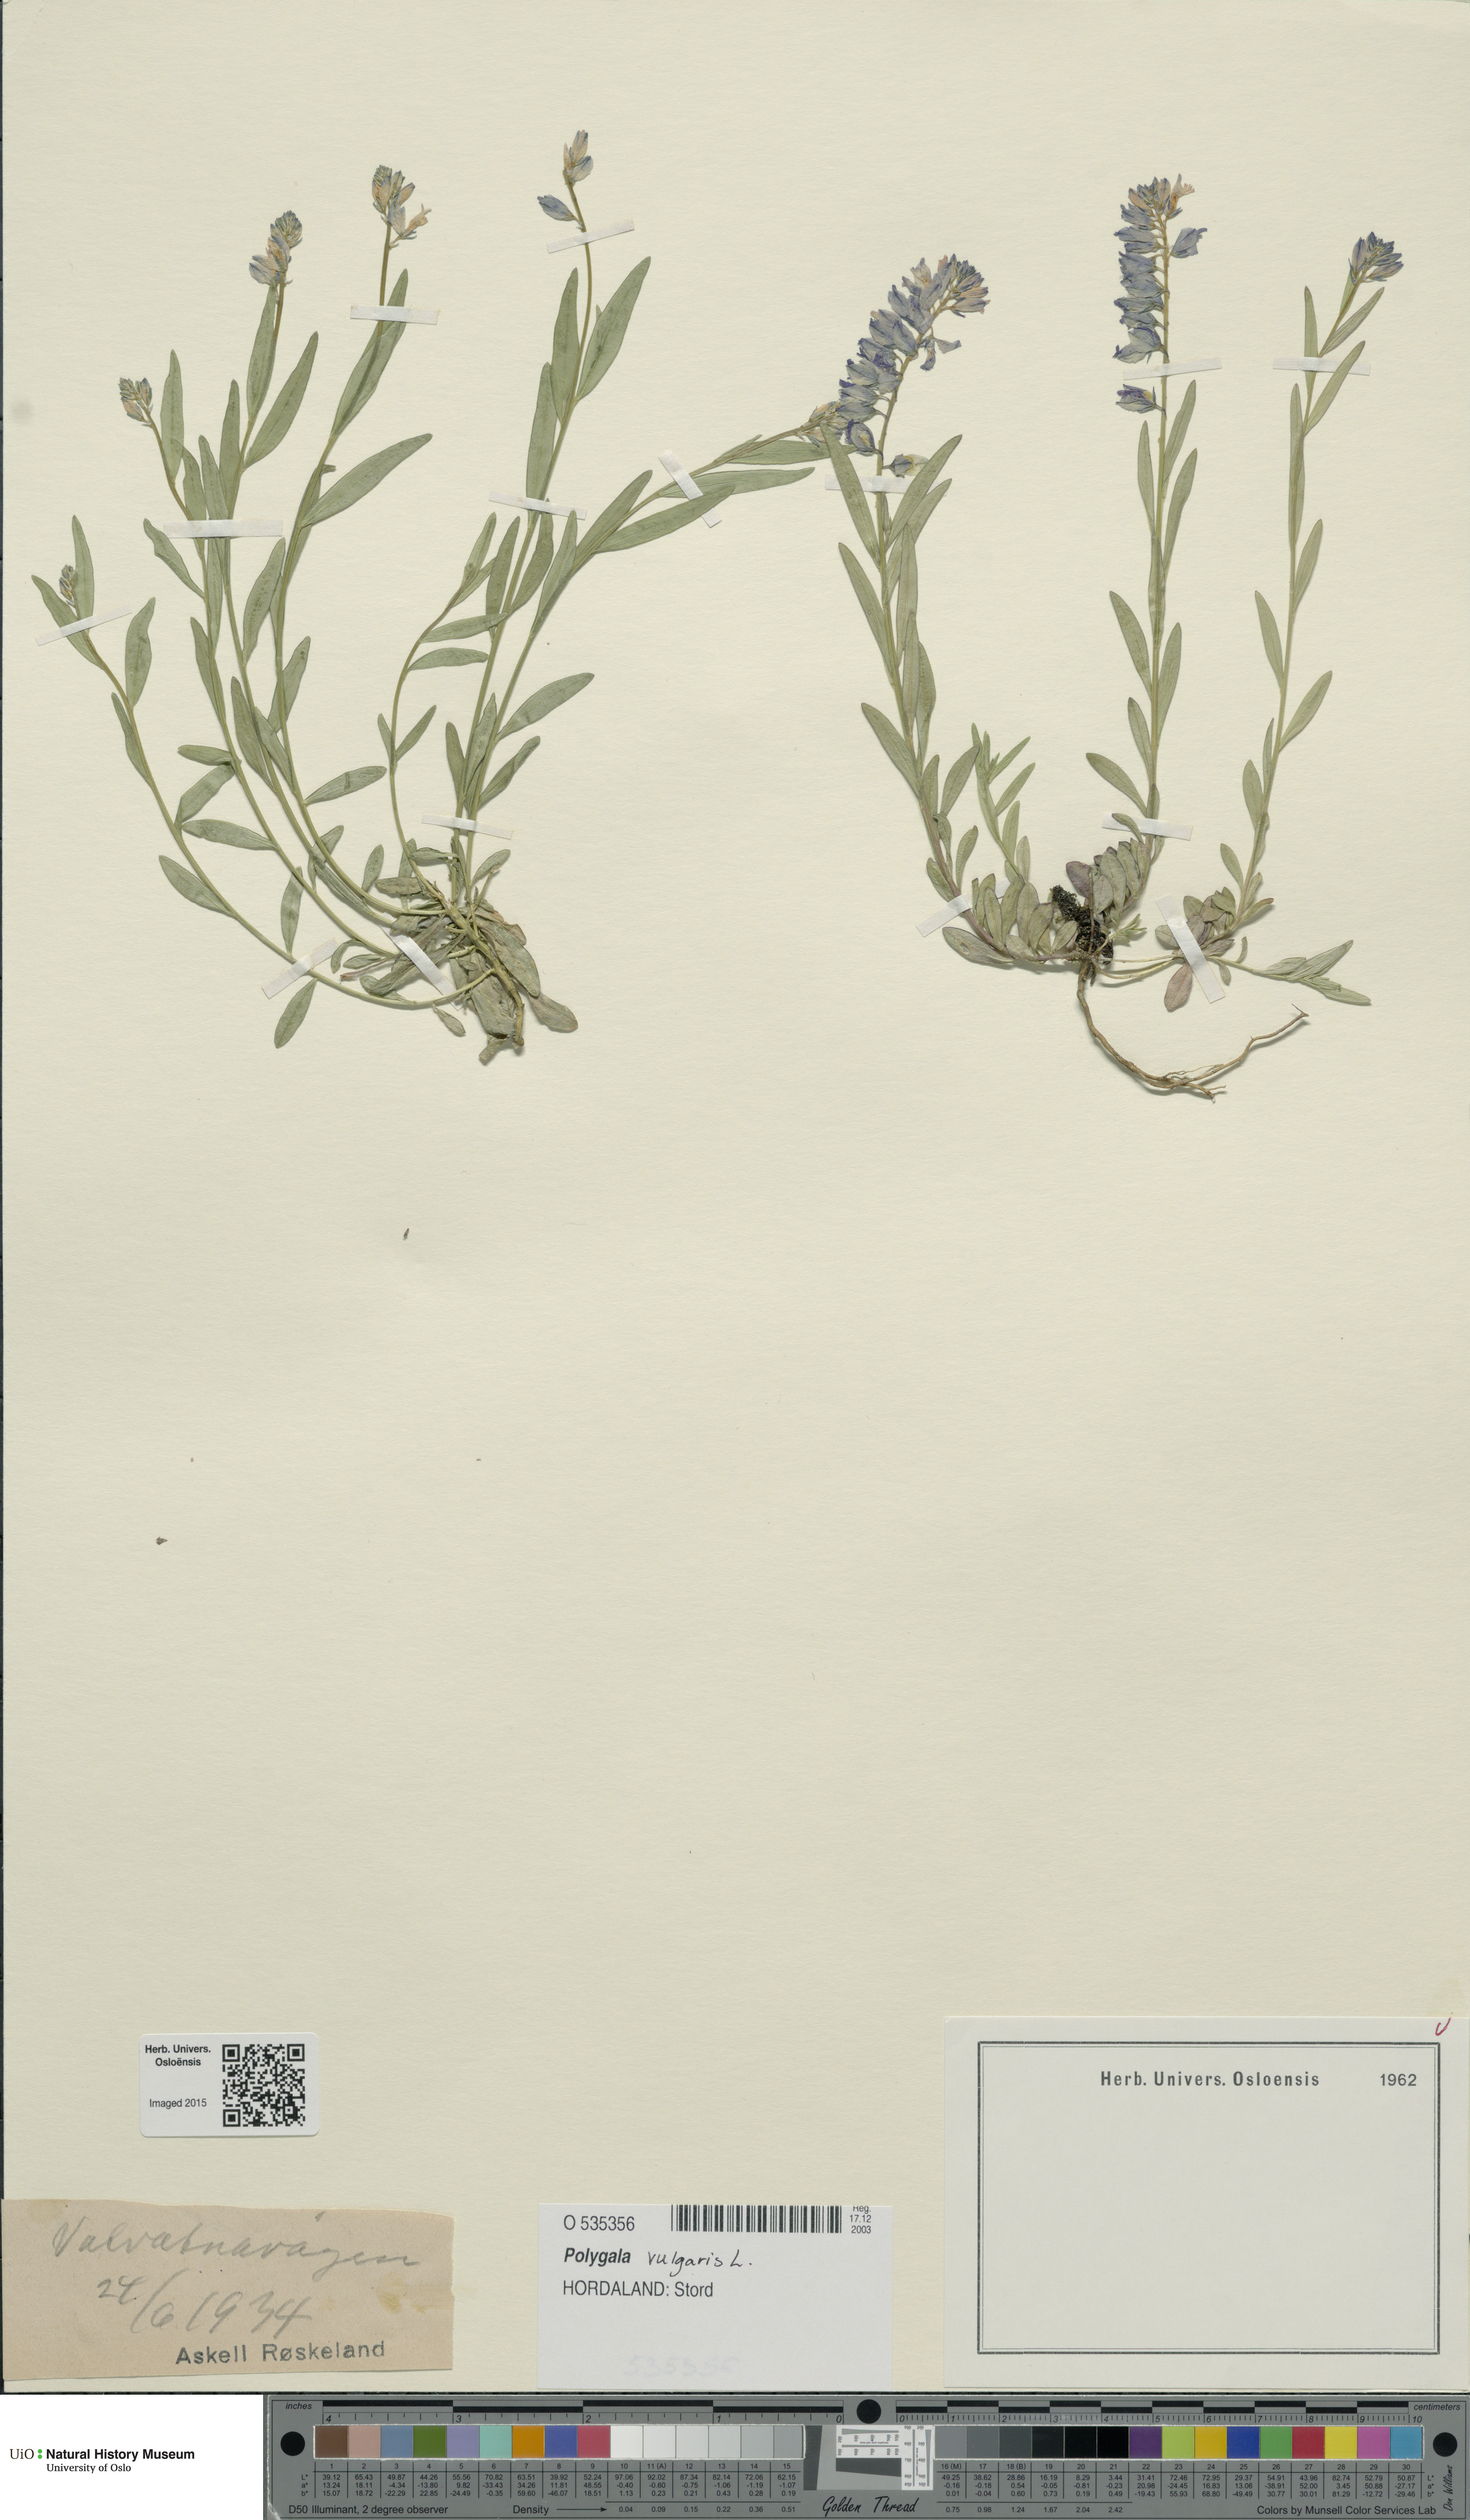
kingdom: Plantae
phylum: Tracheophyta
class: Magnoliopsida
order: Fabales
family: Polygalaceae
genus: Polygala
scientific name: Polygala vulgaris
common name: Common milkwort
